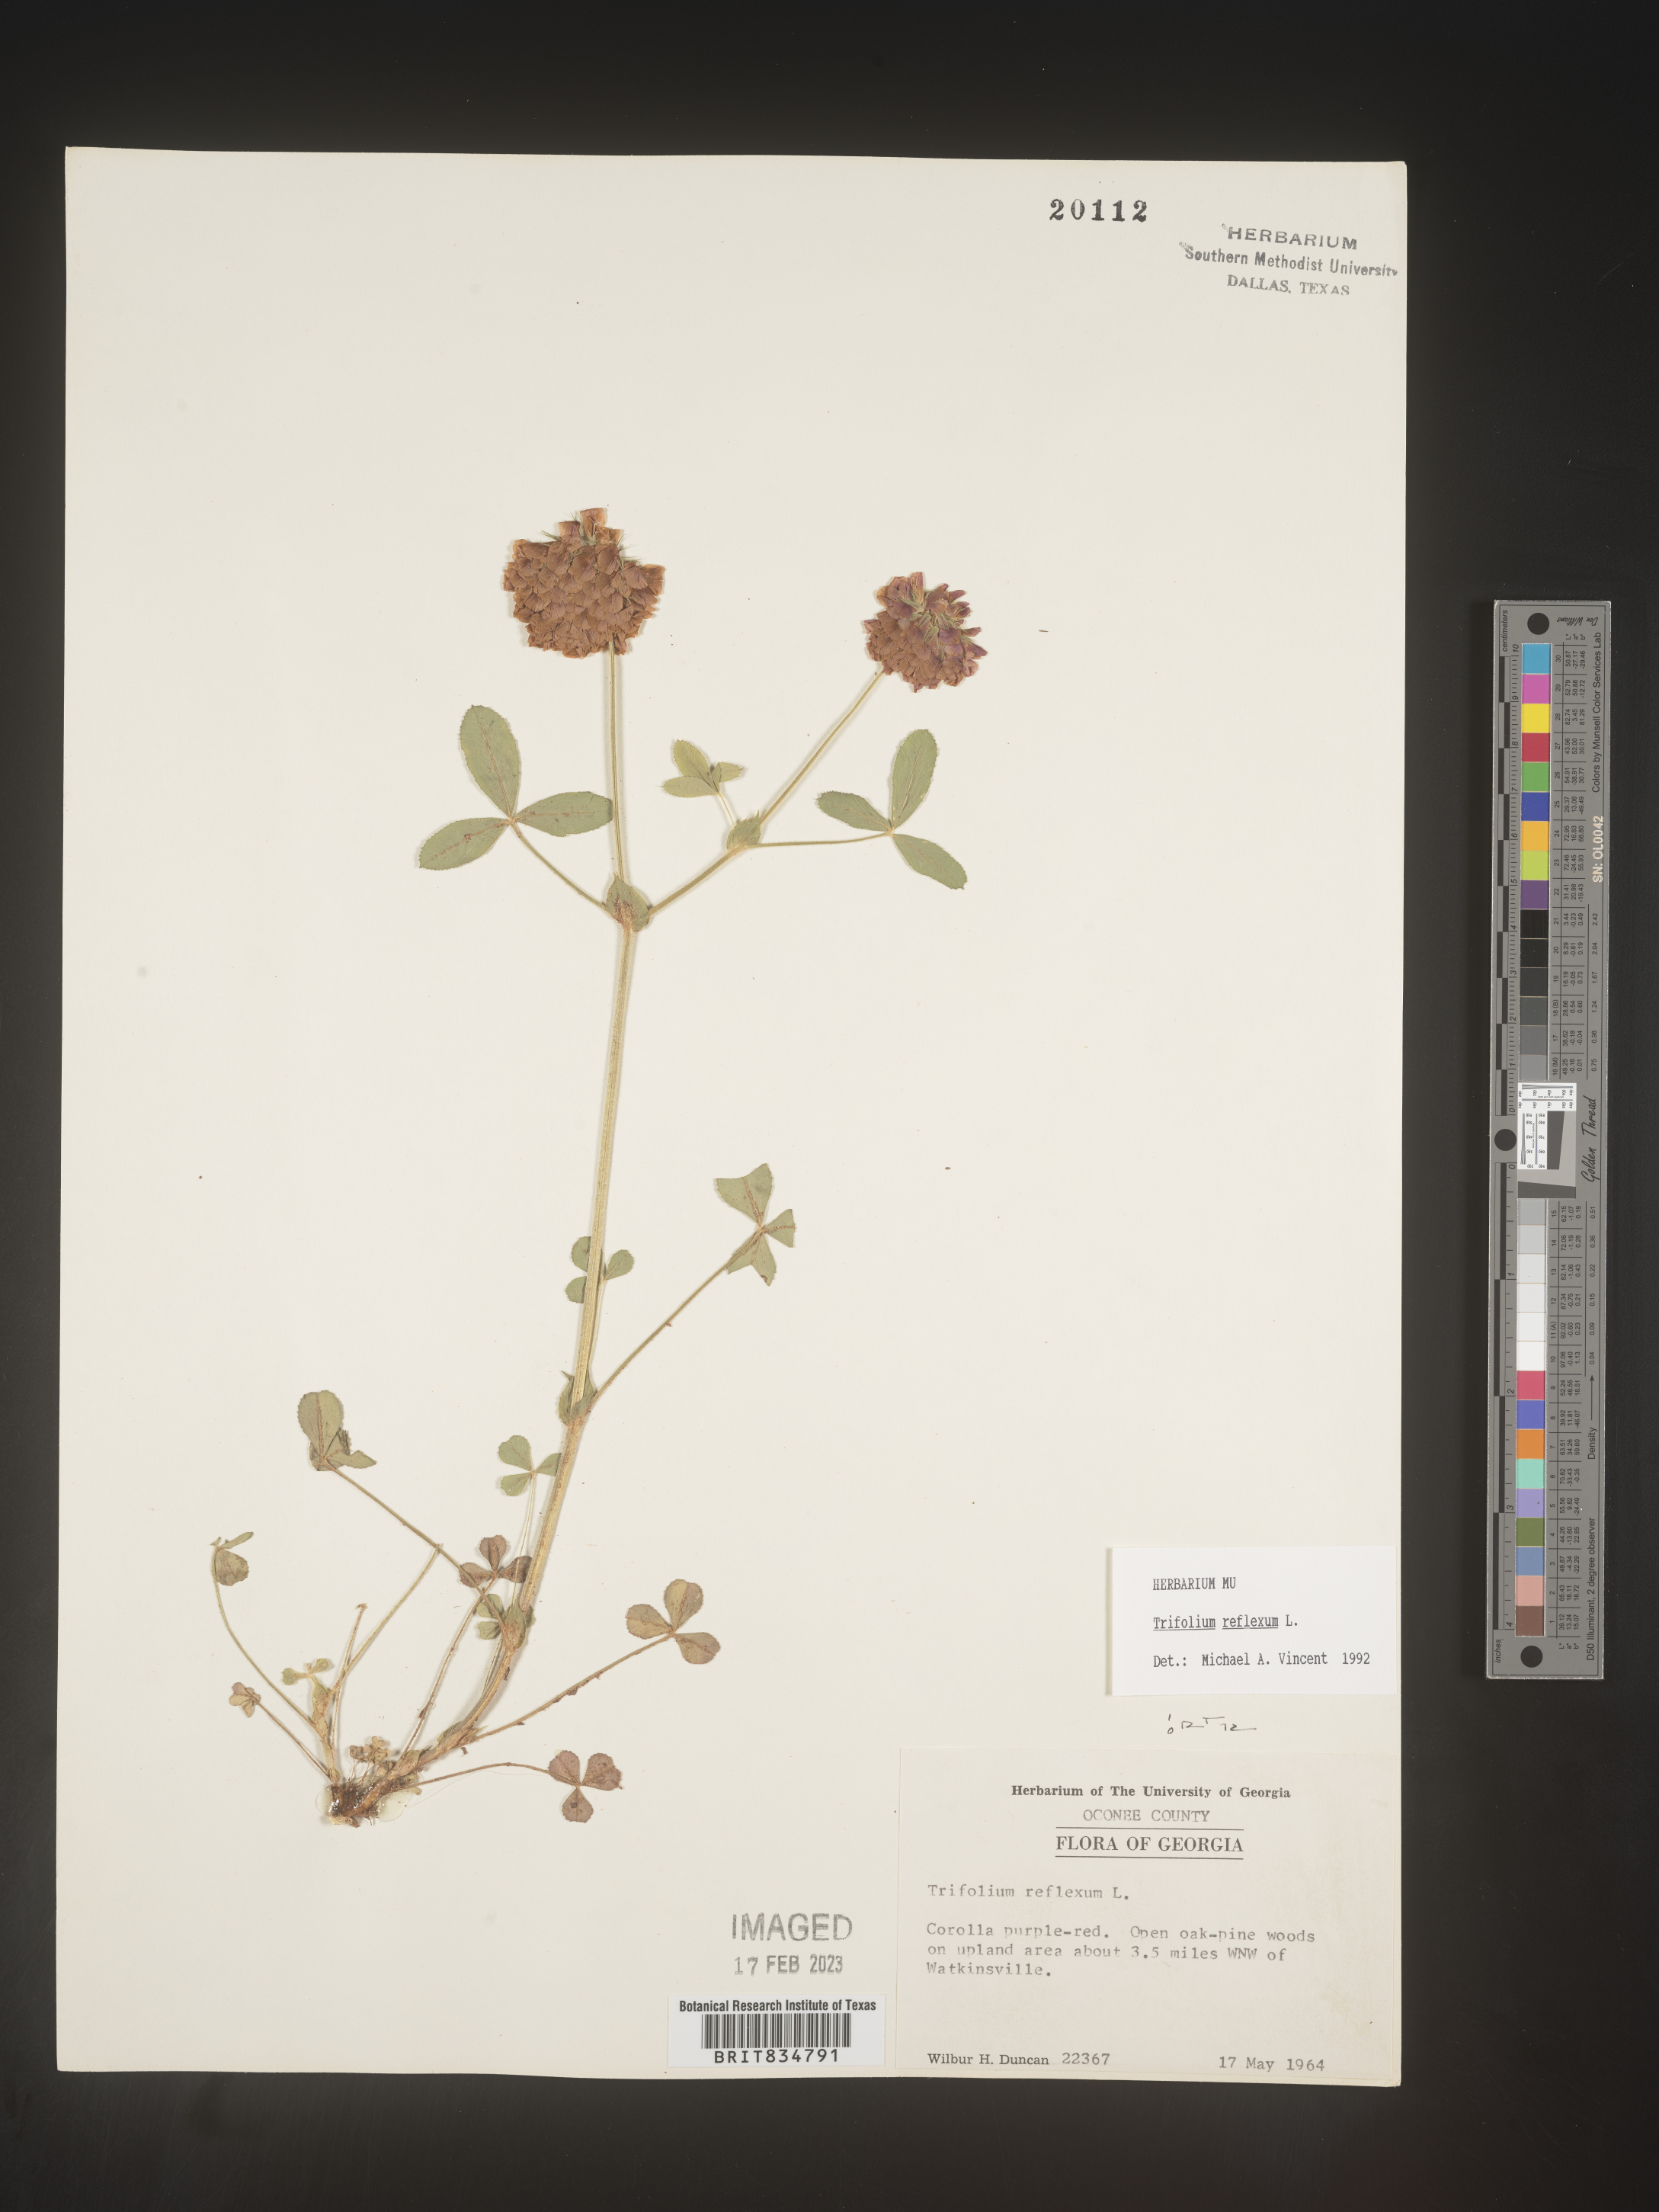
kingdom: Plantae
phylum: Tracheophyta
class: Magnoliopsida
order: Fabales
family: Fabaceae
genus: Trifolium
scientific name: Trifolium reflexum
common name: Buffalo clover
